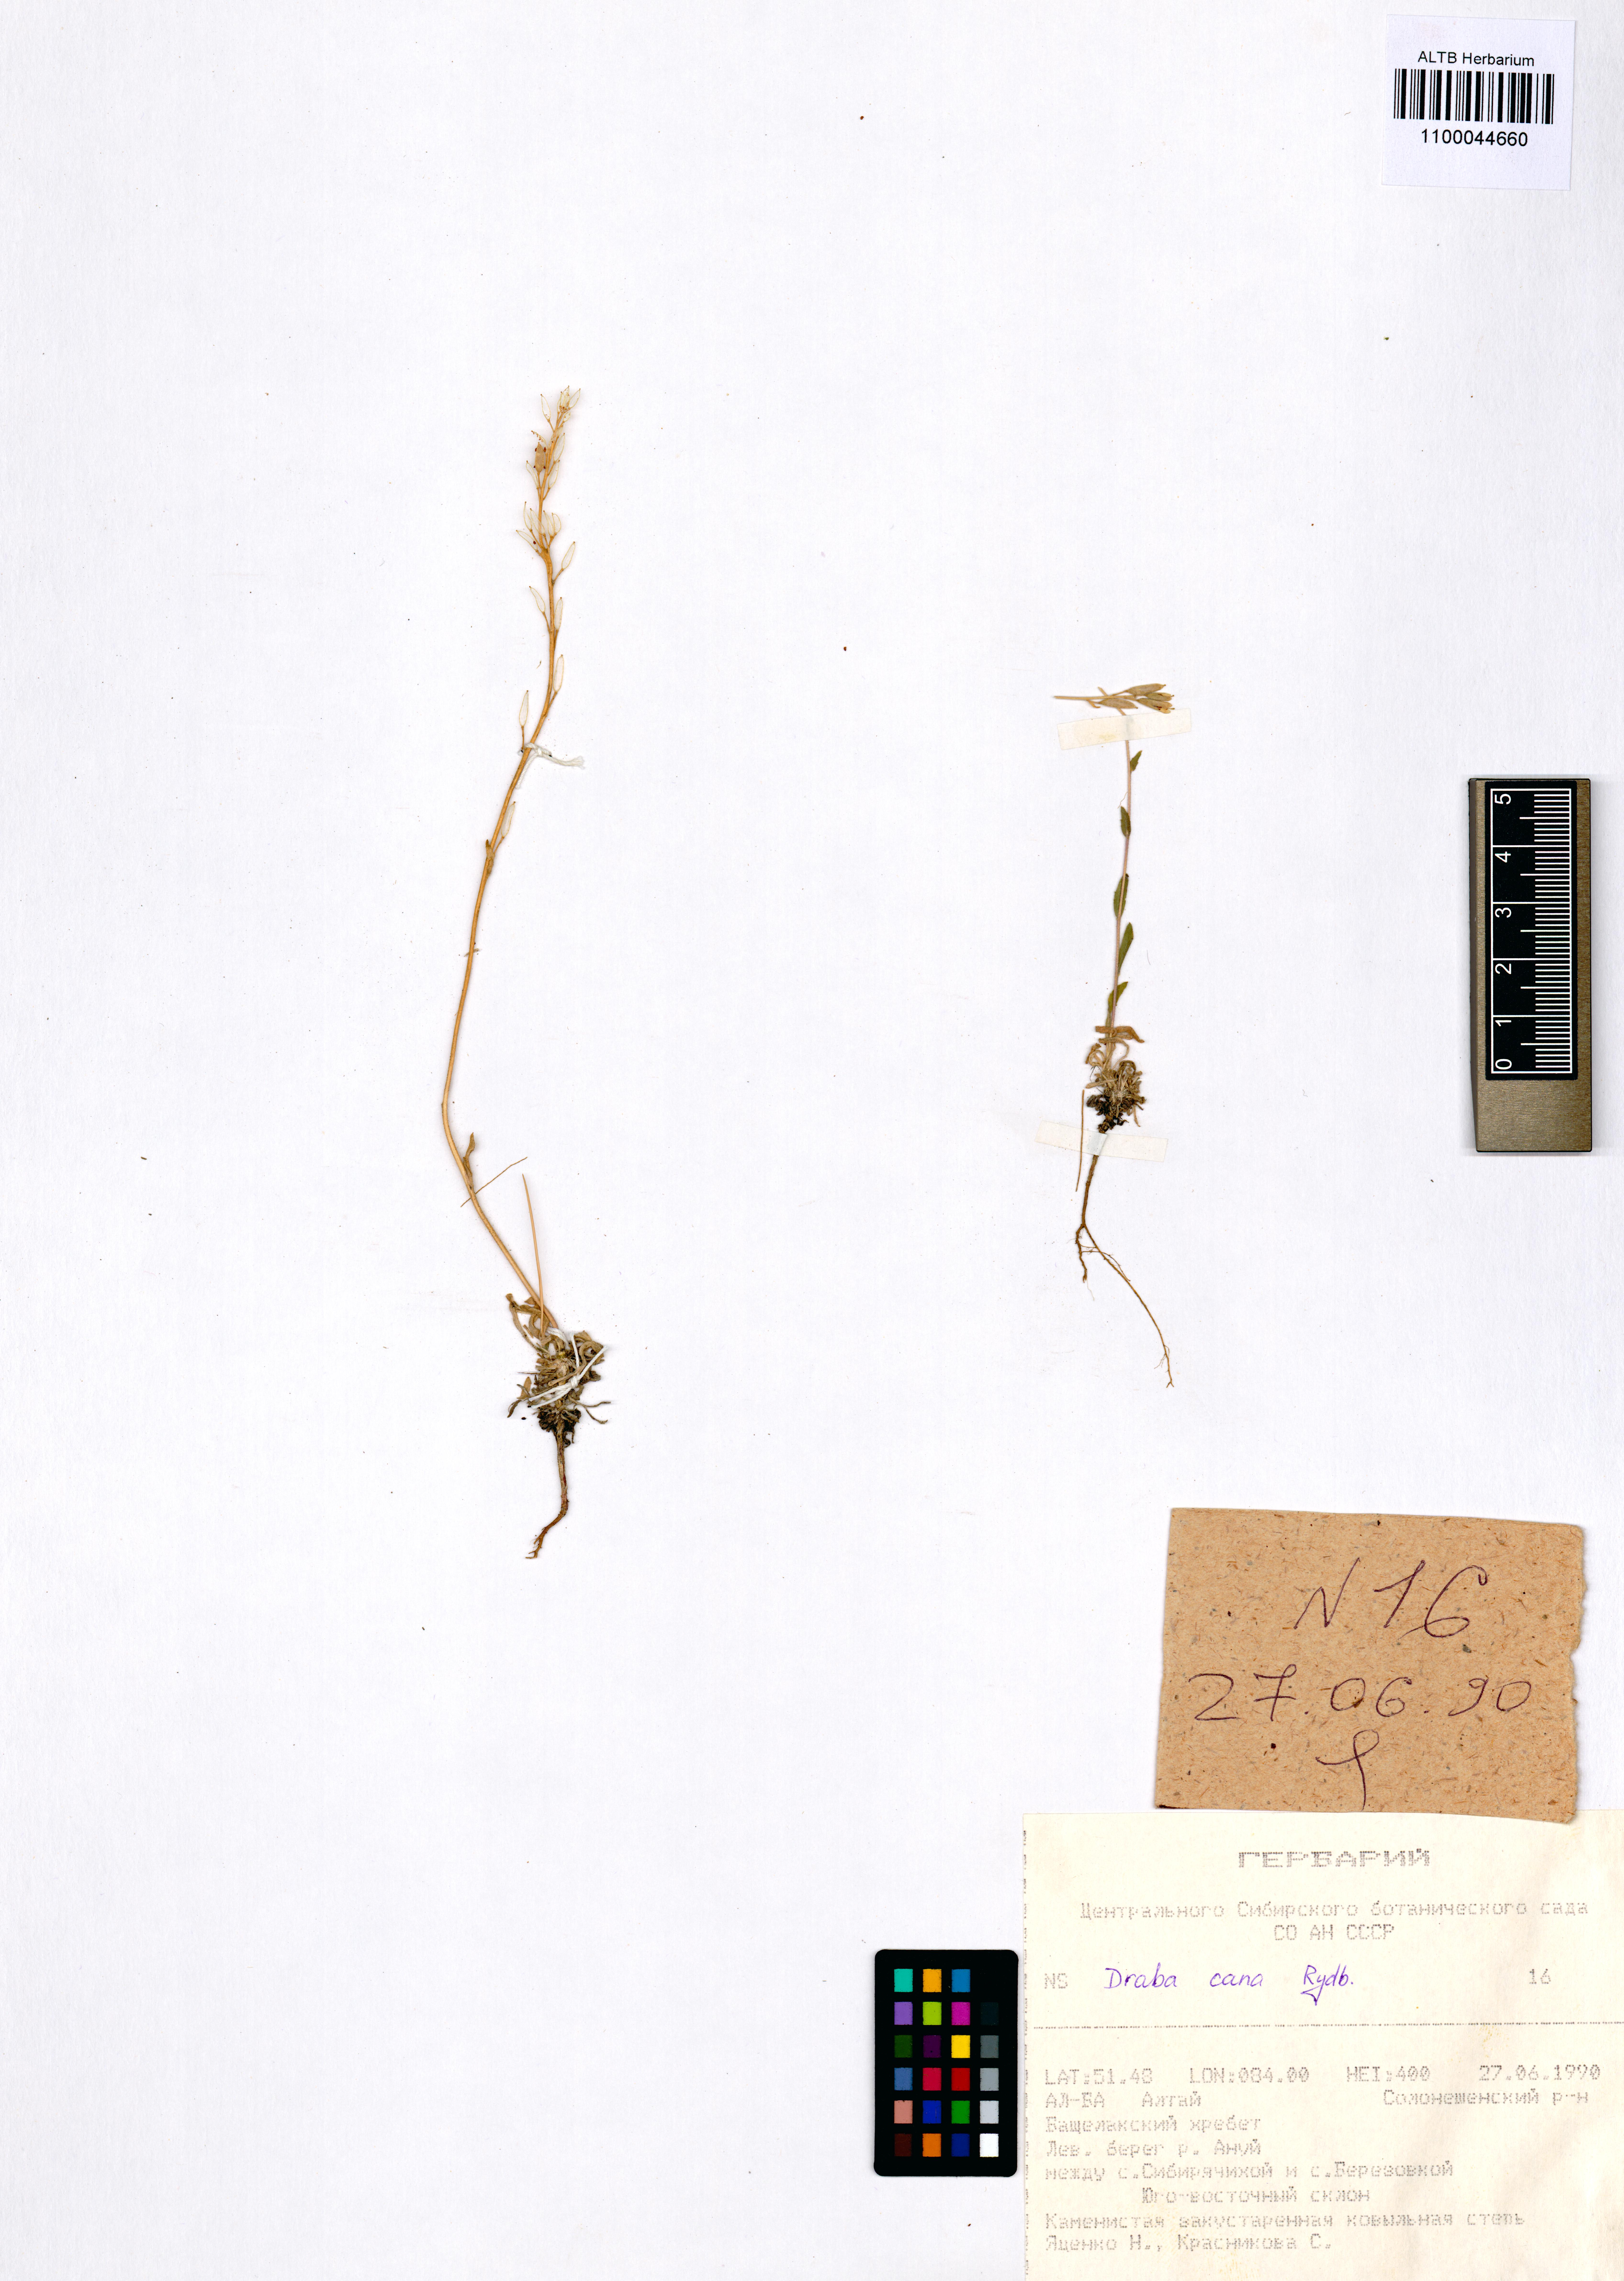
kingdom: Plantae
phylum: Tracheophyta
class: Magnoliopsida
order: Brassicales
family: Brassicaceae
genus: Draba
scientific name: Draba cana
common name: Hoary draba
